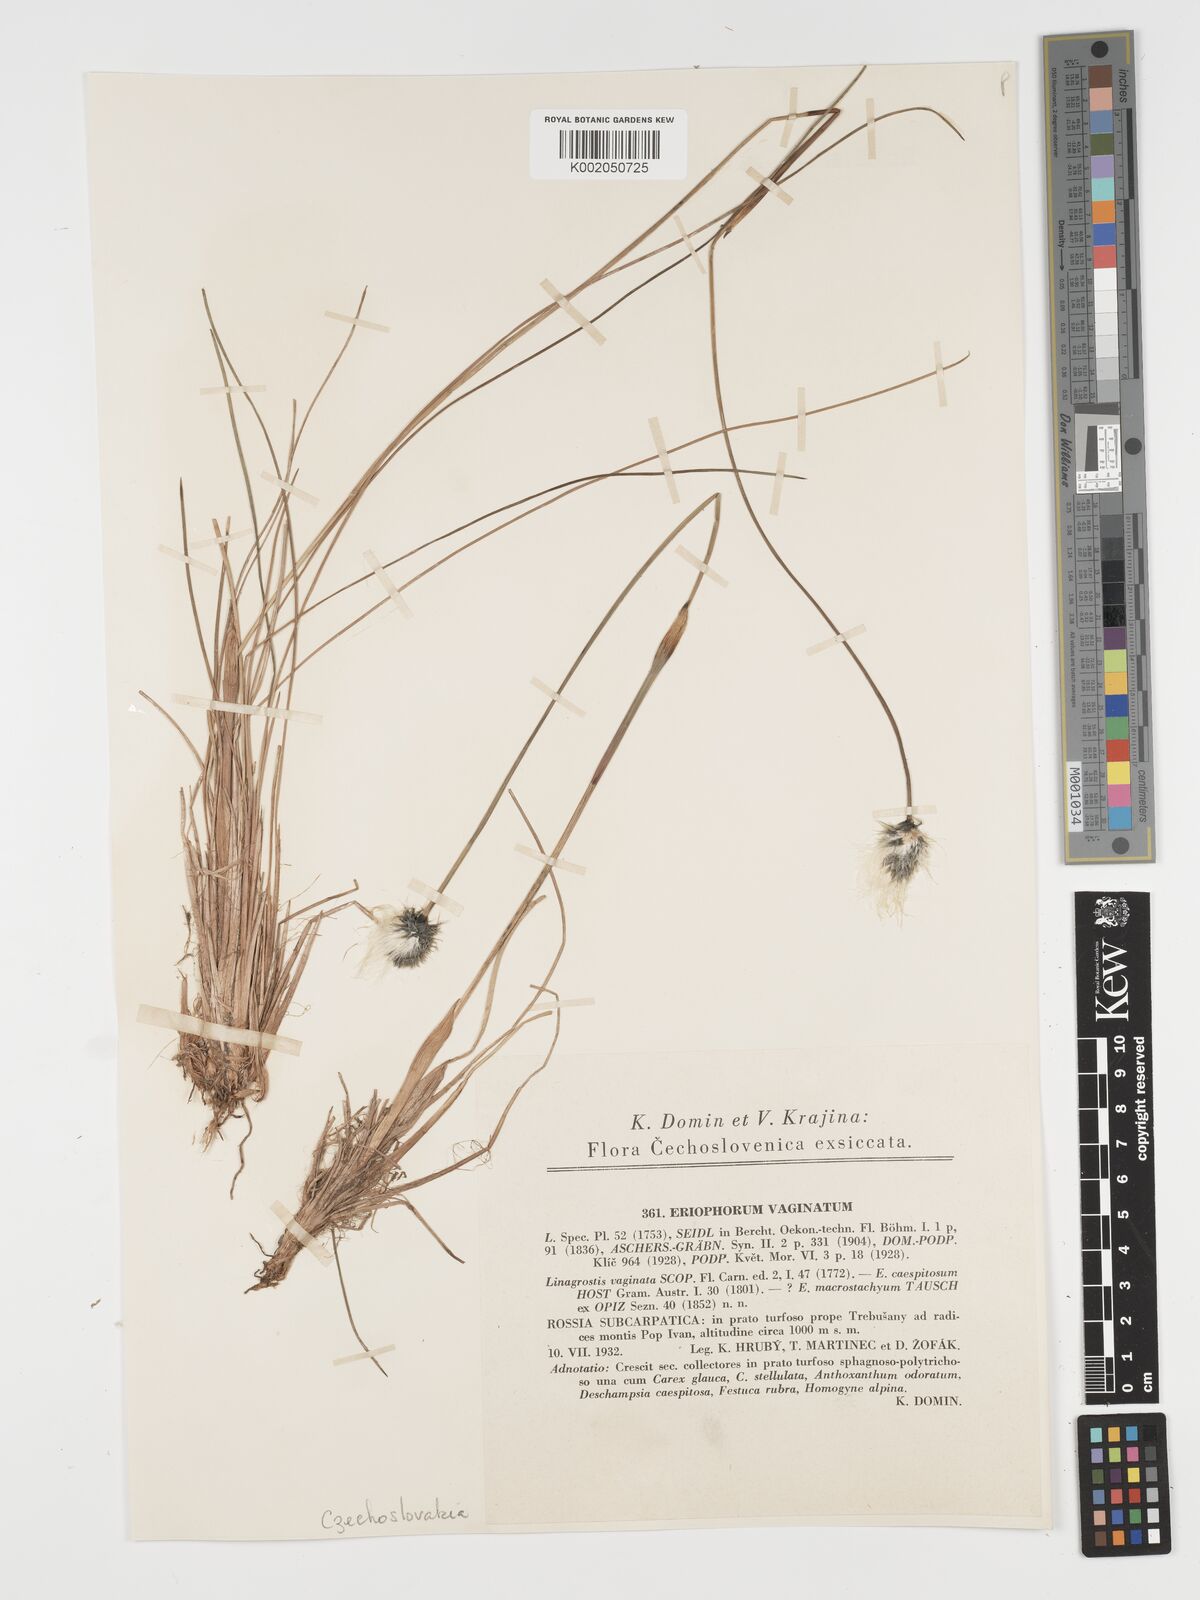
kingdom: Plantae
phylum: Tracheophyta
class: Liliopsida
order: Poales
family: Cyperaceae
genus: Eriophorum
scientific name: Eriophorum vaginatum
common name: Hare's-tail cottongrass
